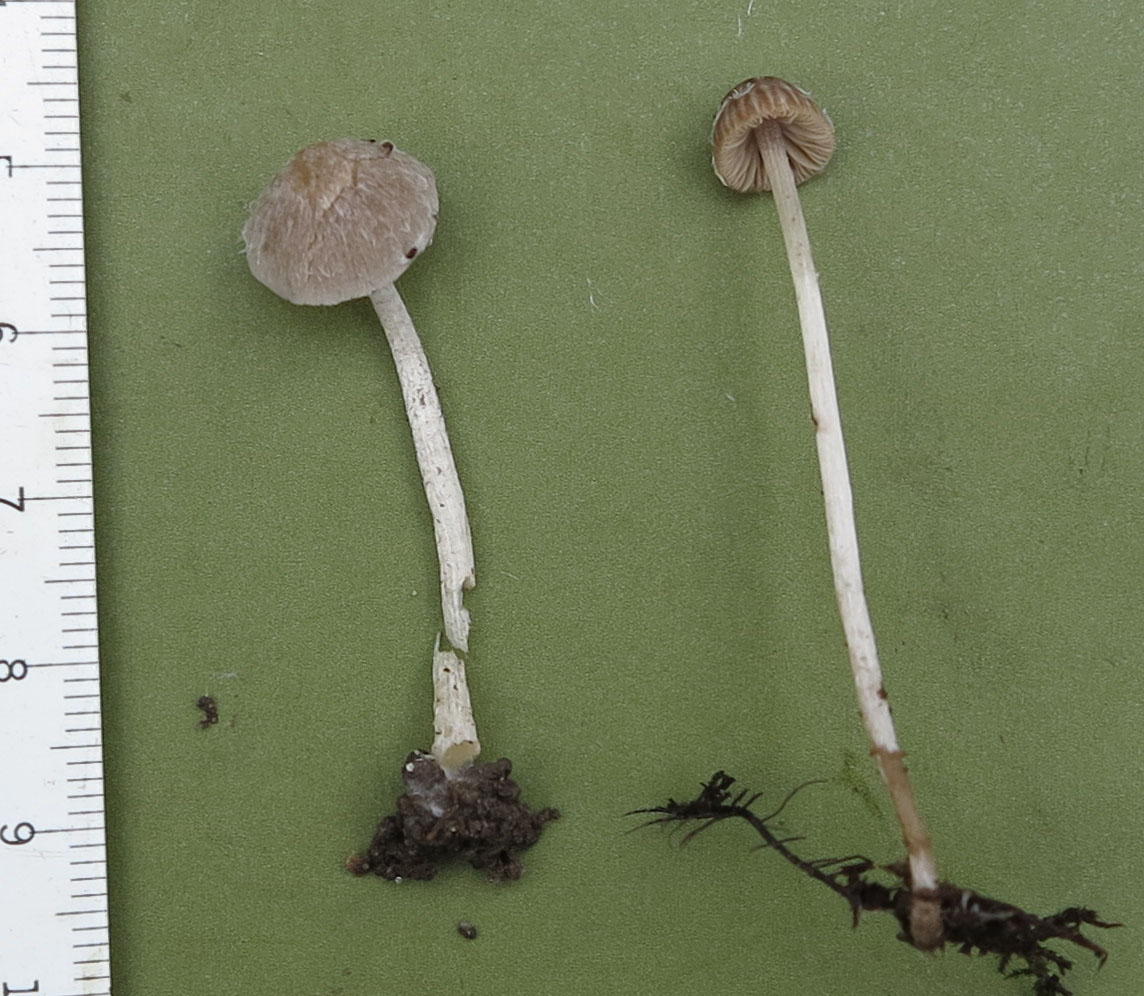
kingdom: Fungi
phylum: Basidiomycota
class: Agaricomycetes
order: Agaricales
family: Psathyrellaceae
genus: Coprinopsis
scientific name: Coprinopsis canoceps
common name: gråhåret blækhat
